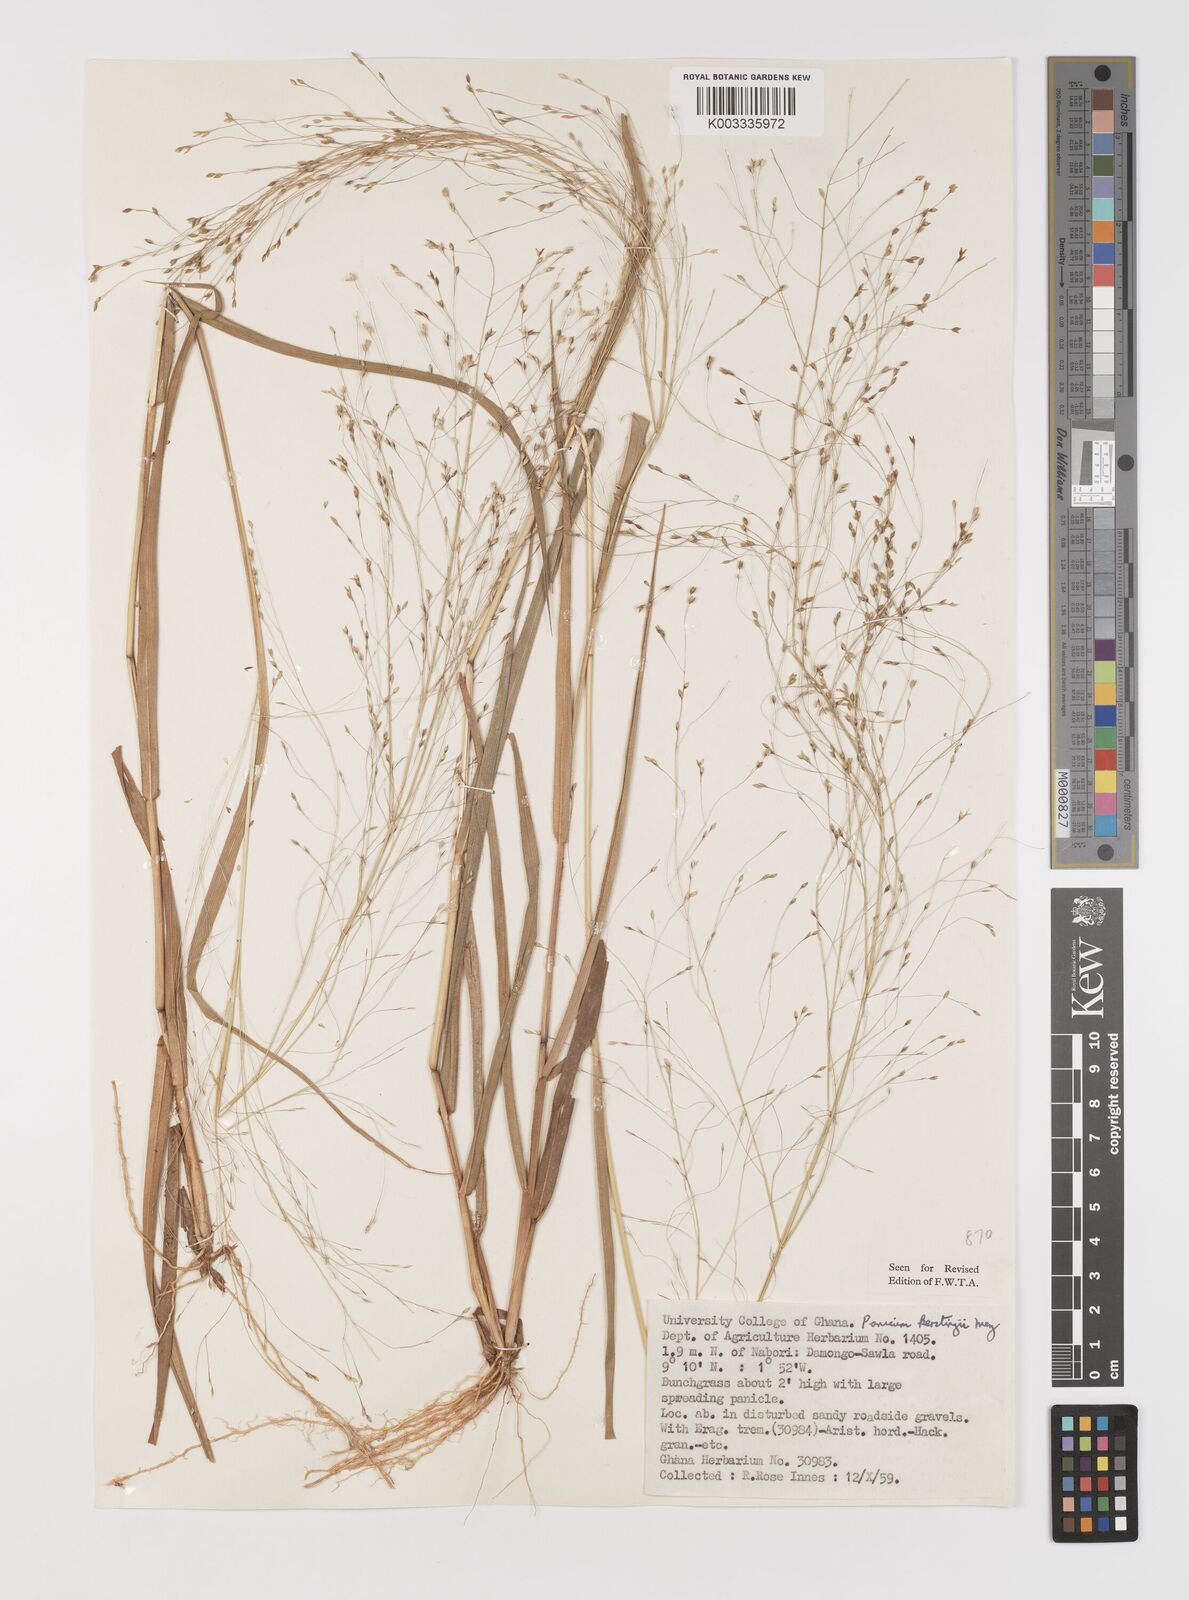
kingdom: Plantae
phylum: Tracheophyta
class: Liliopsida
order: Poales
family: Poaceae
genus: Panicum
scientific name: Panicum pansum
